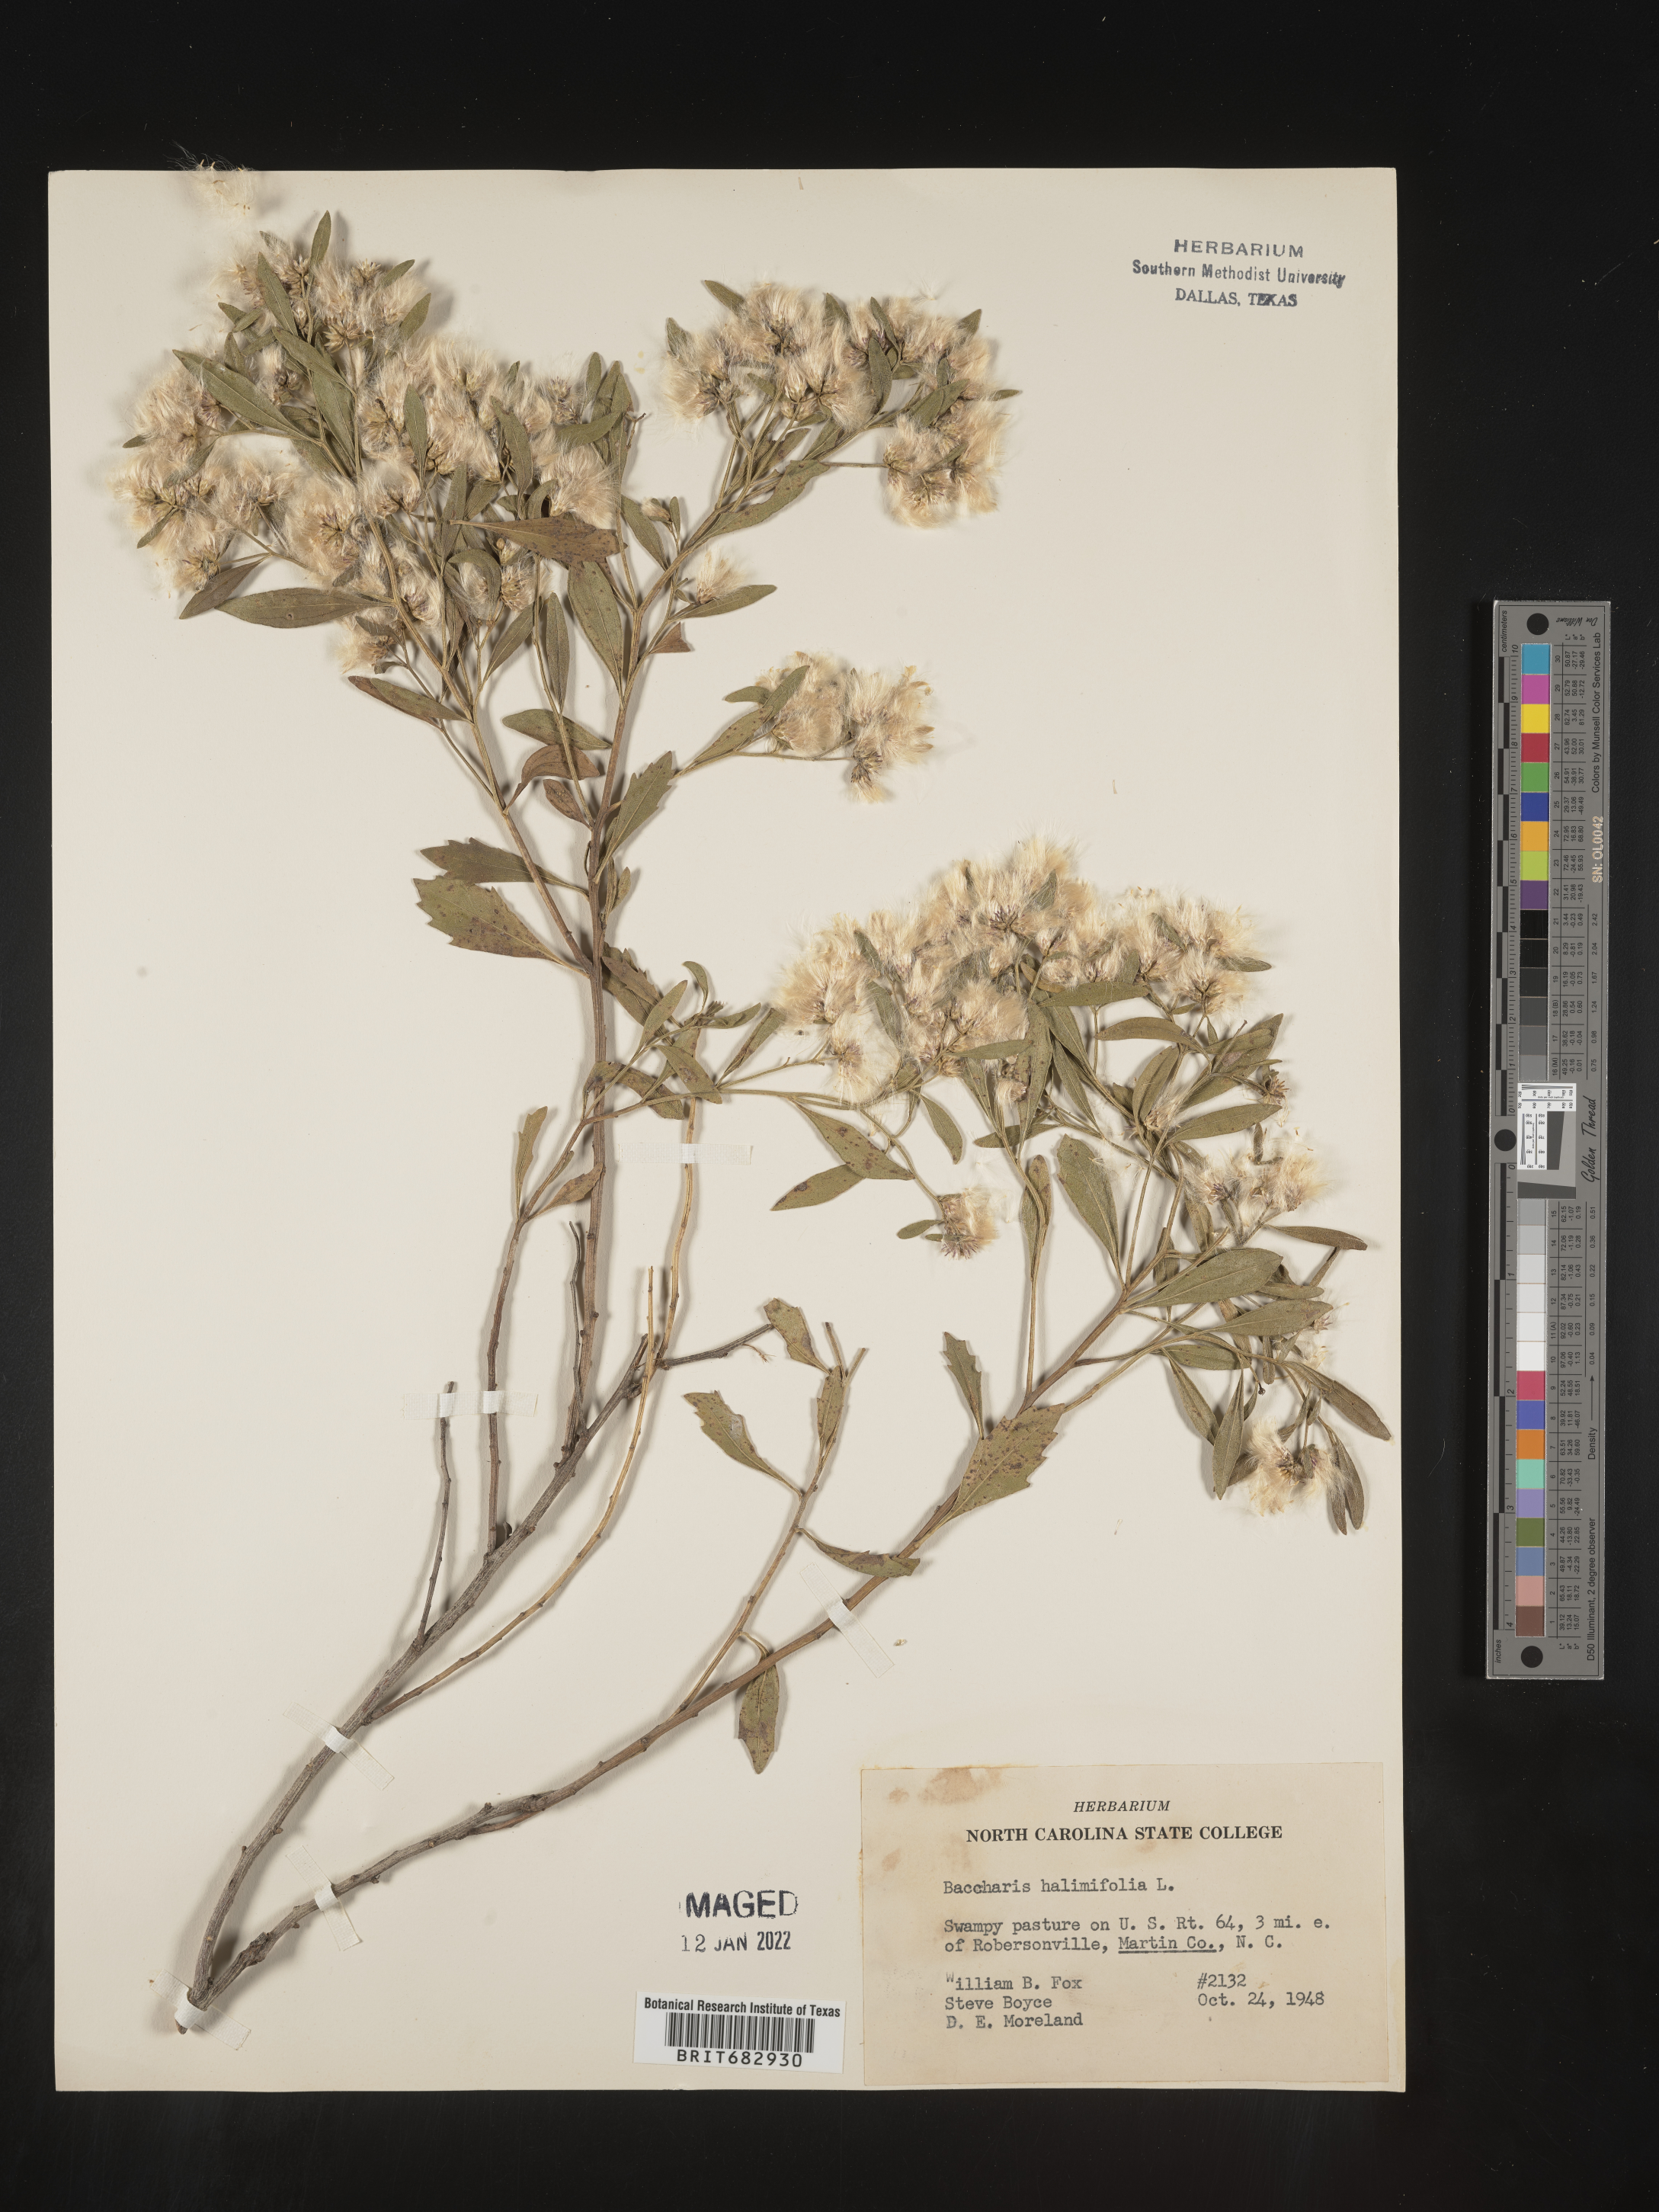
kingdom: Plantae
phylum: Tracheophyta
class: Magnoliopsida
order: Asterales
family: Asteraceae
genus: Nidorella
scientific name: Nidorella ivifolia
